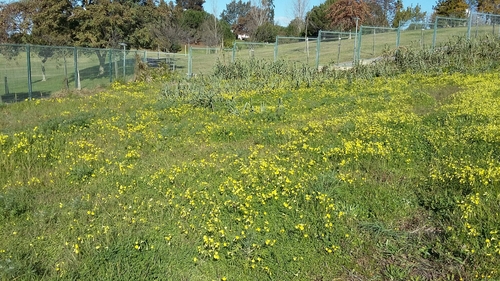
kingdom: Plantae
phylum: Tracheophyta
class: Magnoliopsida
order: Oxalidales
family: Oxalidaceae
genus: Oxalis
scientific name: Oxalis pes-caprae
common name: Bermuda-buttercup
